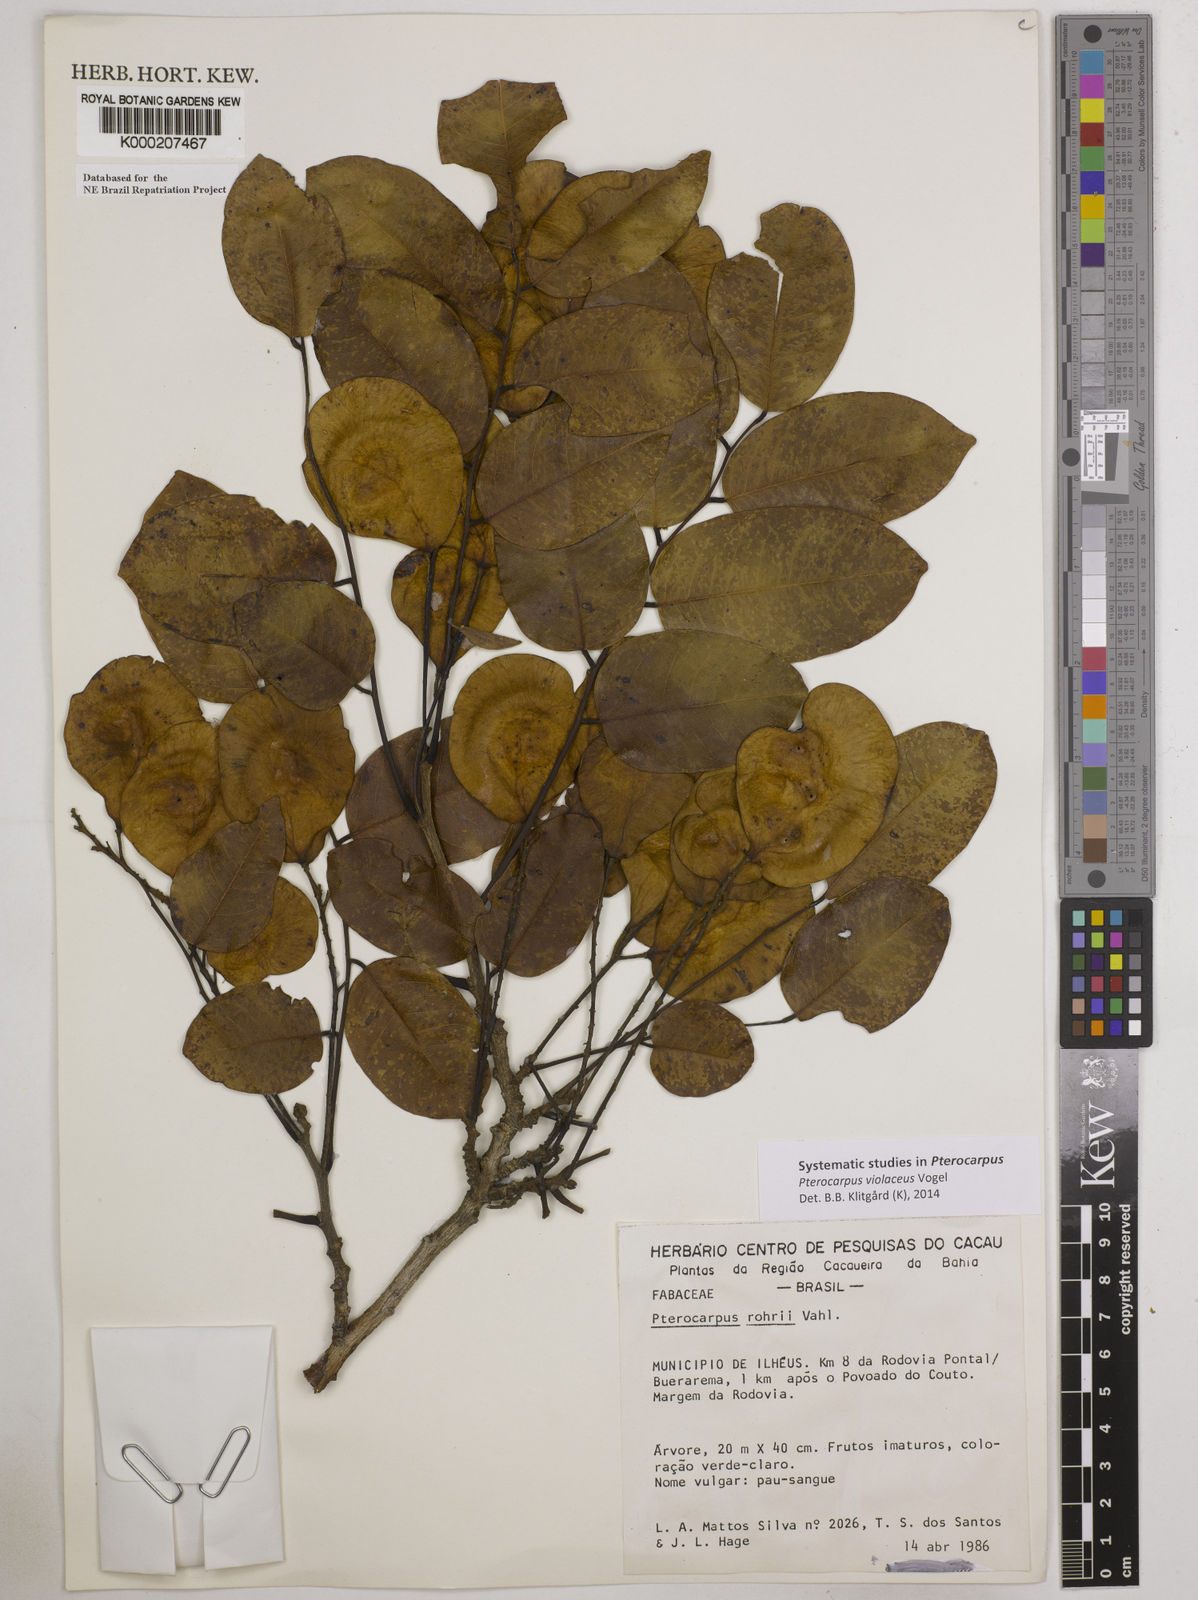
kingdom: Plantae
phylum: Tracheophyta
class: Magnoliopsida
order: Fabales
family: Fabaceae
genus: Pterocarpus
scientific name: Pterocarpus rohrii
